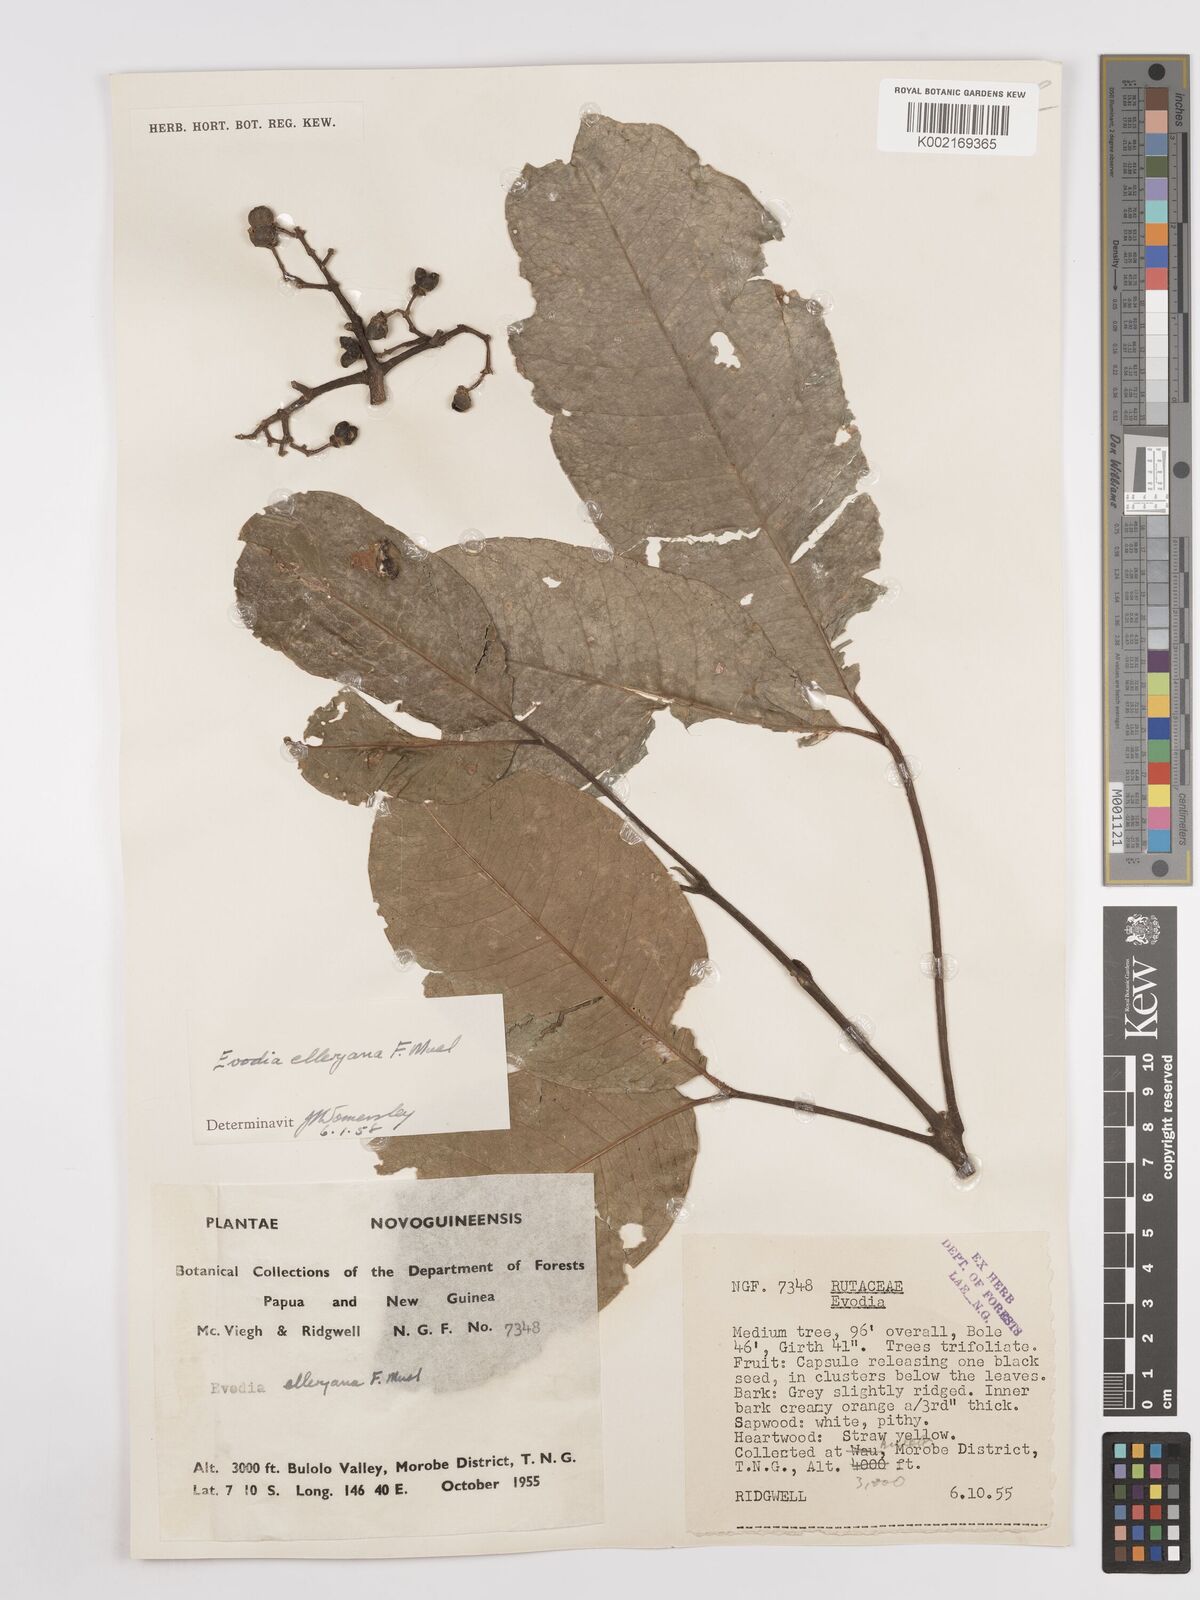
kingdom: Plantae
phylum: Tracheophyta
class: Magnoliopsida
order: Sapindales
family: Rutaceae
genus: Melicope
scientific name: Melicope elleryana
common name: Pink euodia
